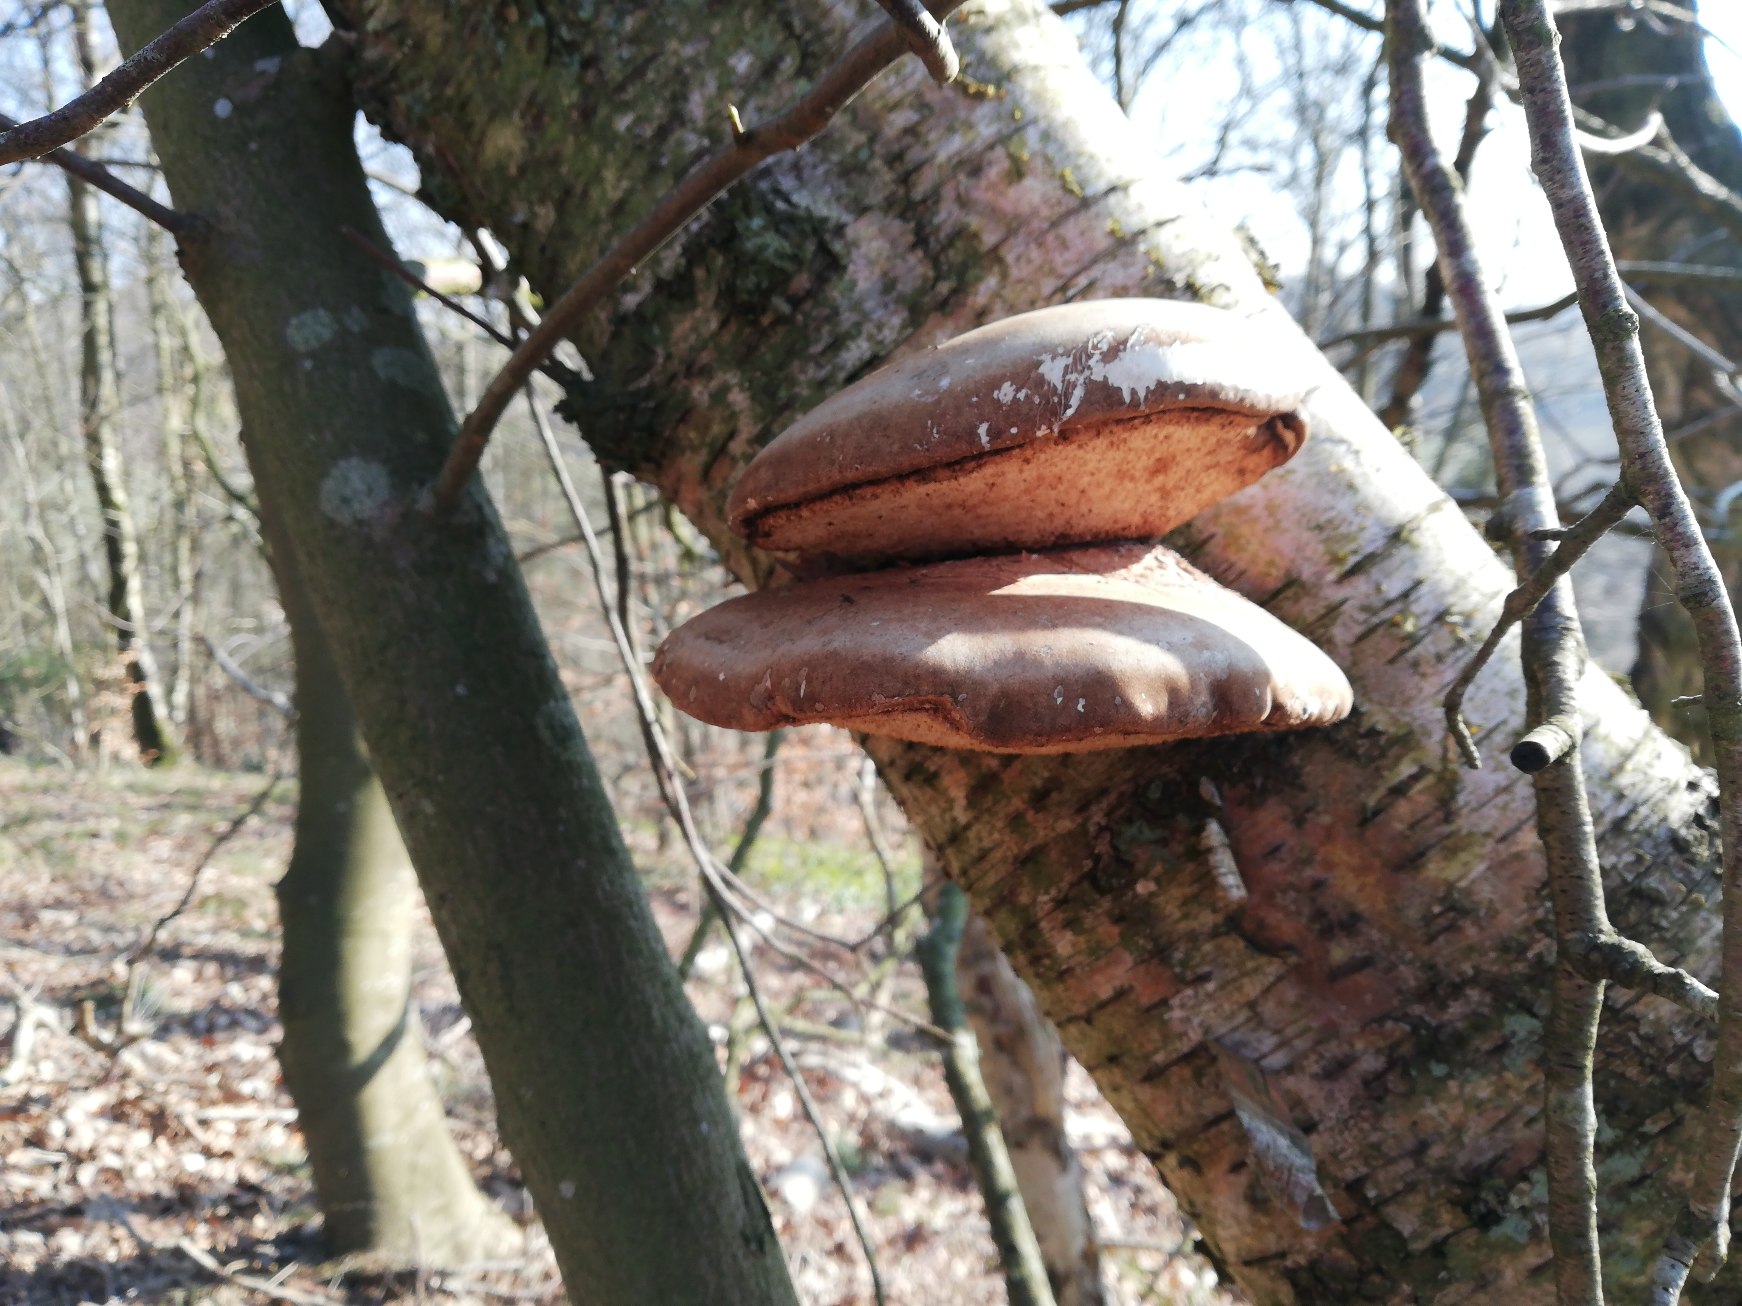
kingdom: Fungi
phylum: Basidiomycota
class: Agaricomycetes
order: Polyporales
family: Fomitopsidaceae
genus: Fomitopsis
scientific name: Fomitopsis betulina
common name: Birkeporesvamp
